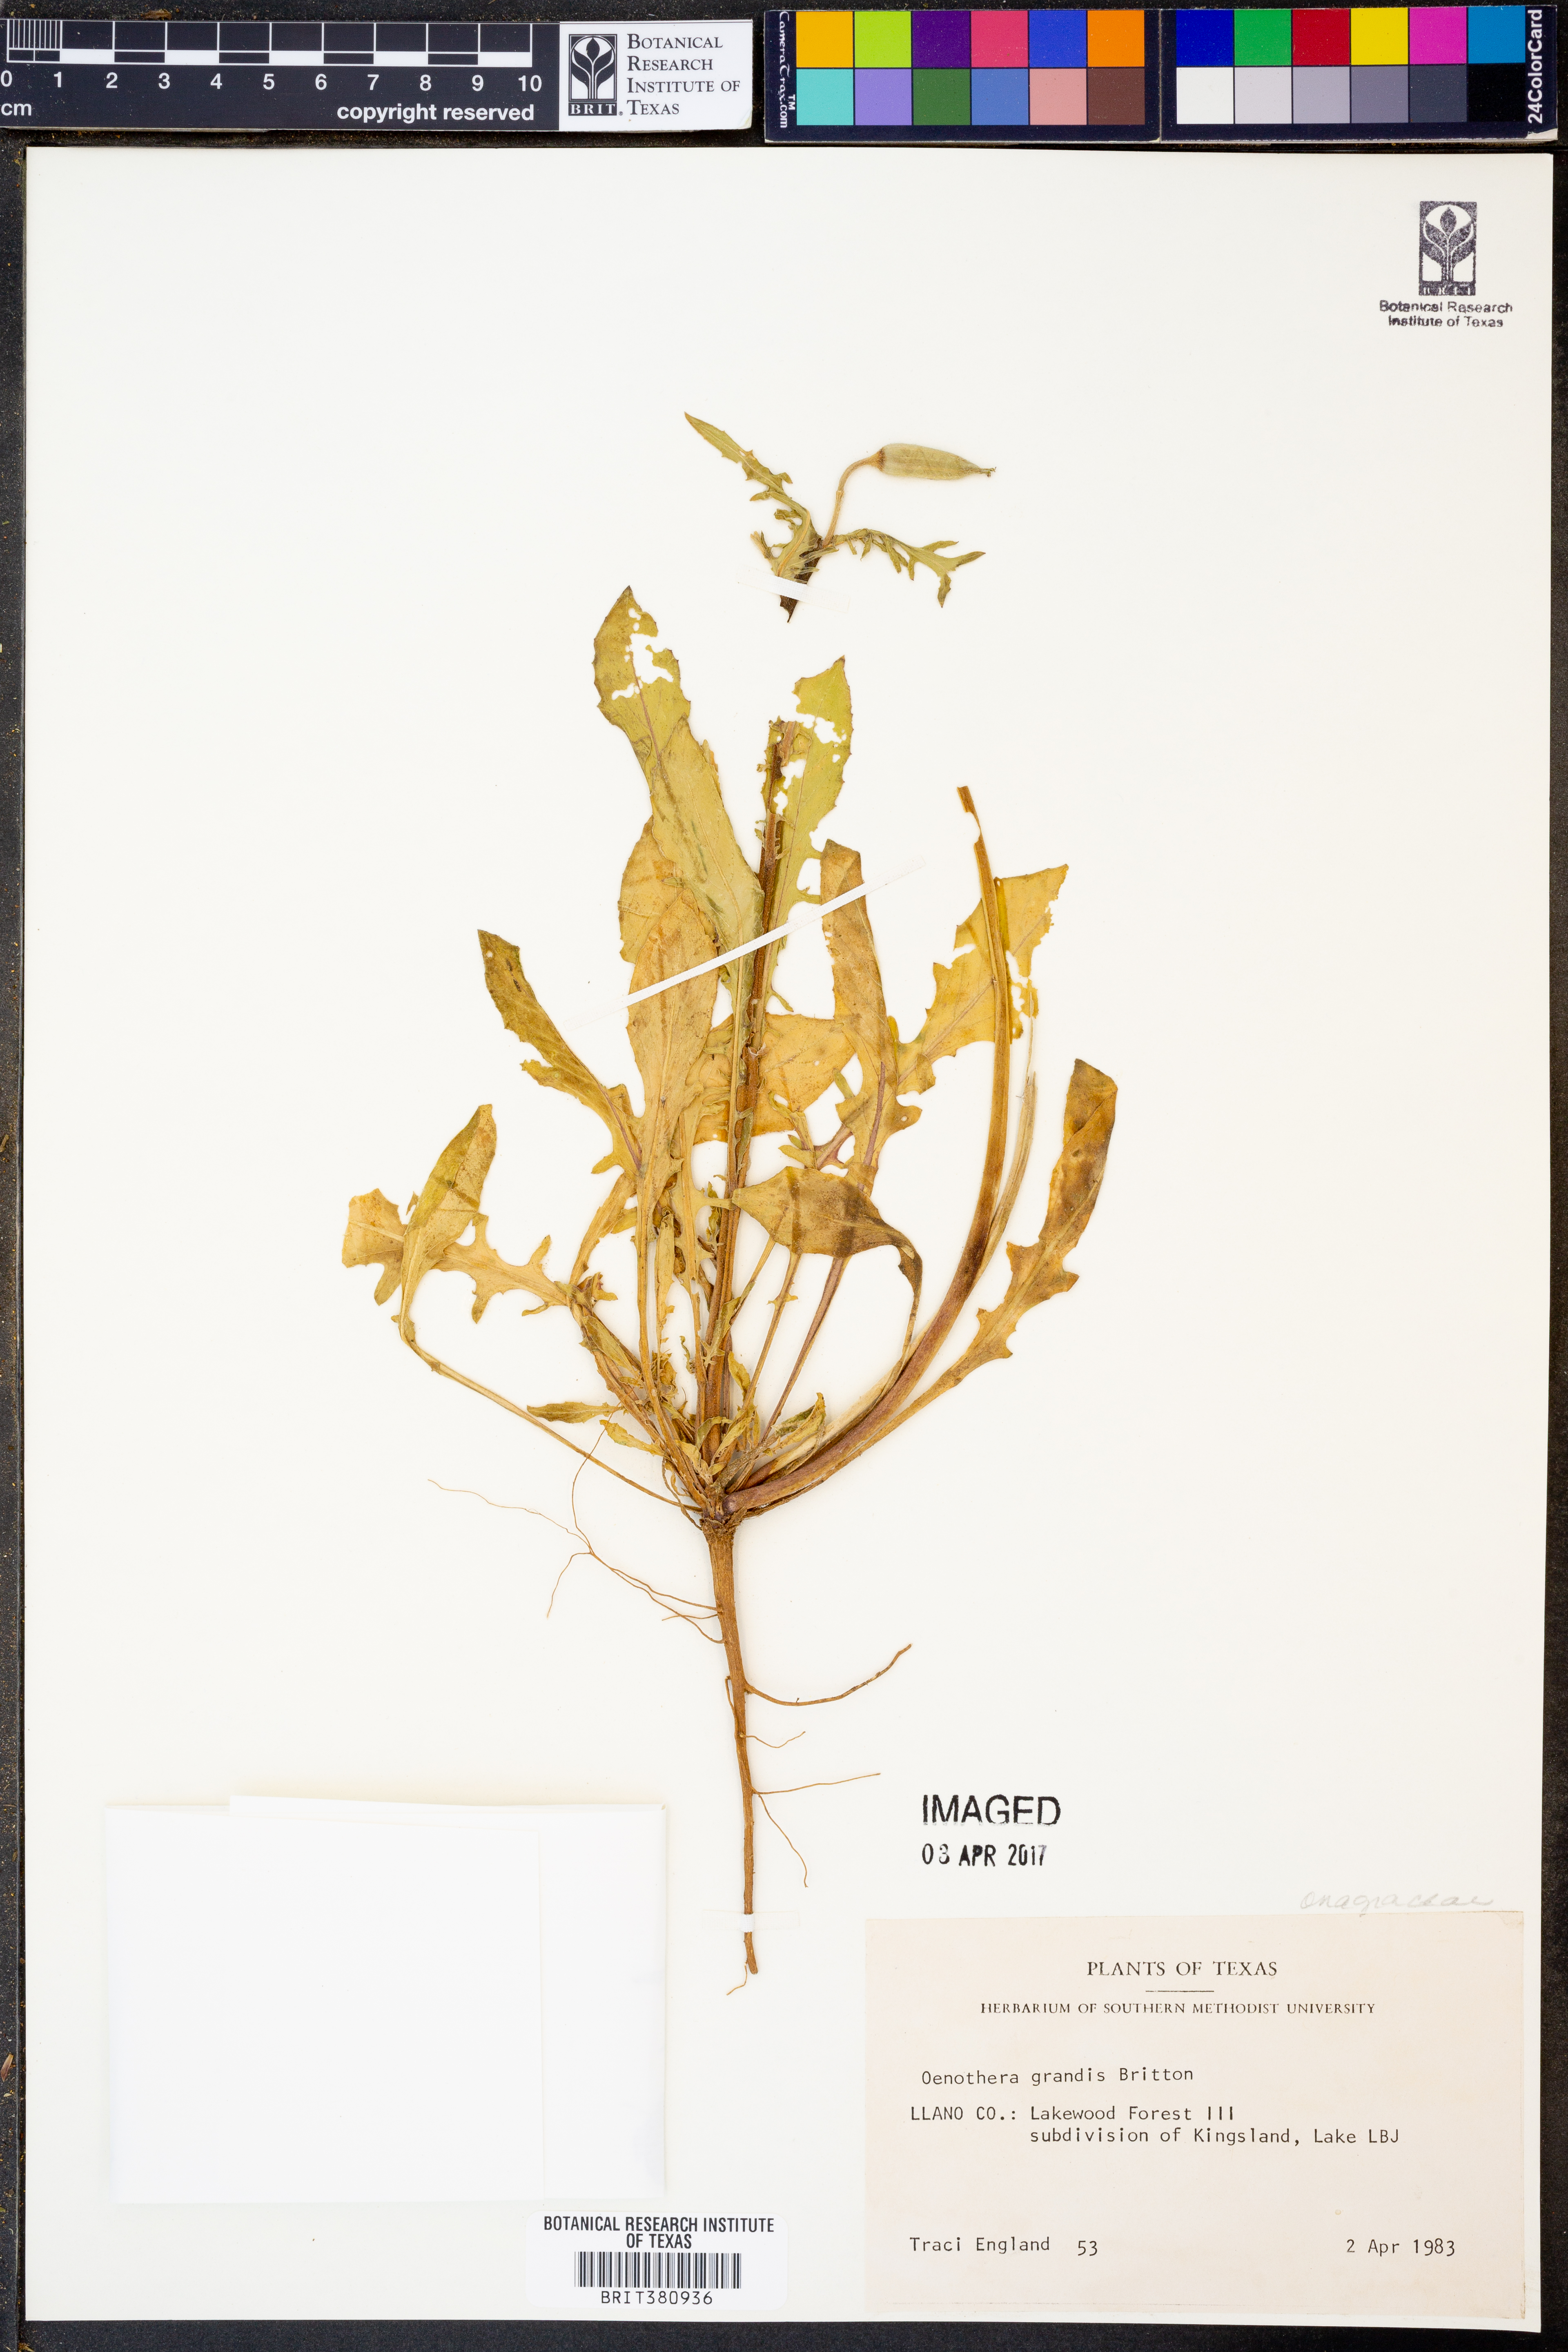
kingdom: Plantae
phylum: Tracheophyta
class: Magnoliopsida
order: Myrtales
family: Onagraceae
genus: Oenothera
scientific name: Oenothera grandis
